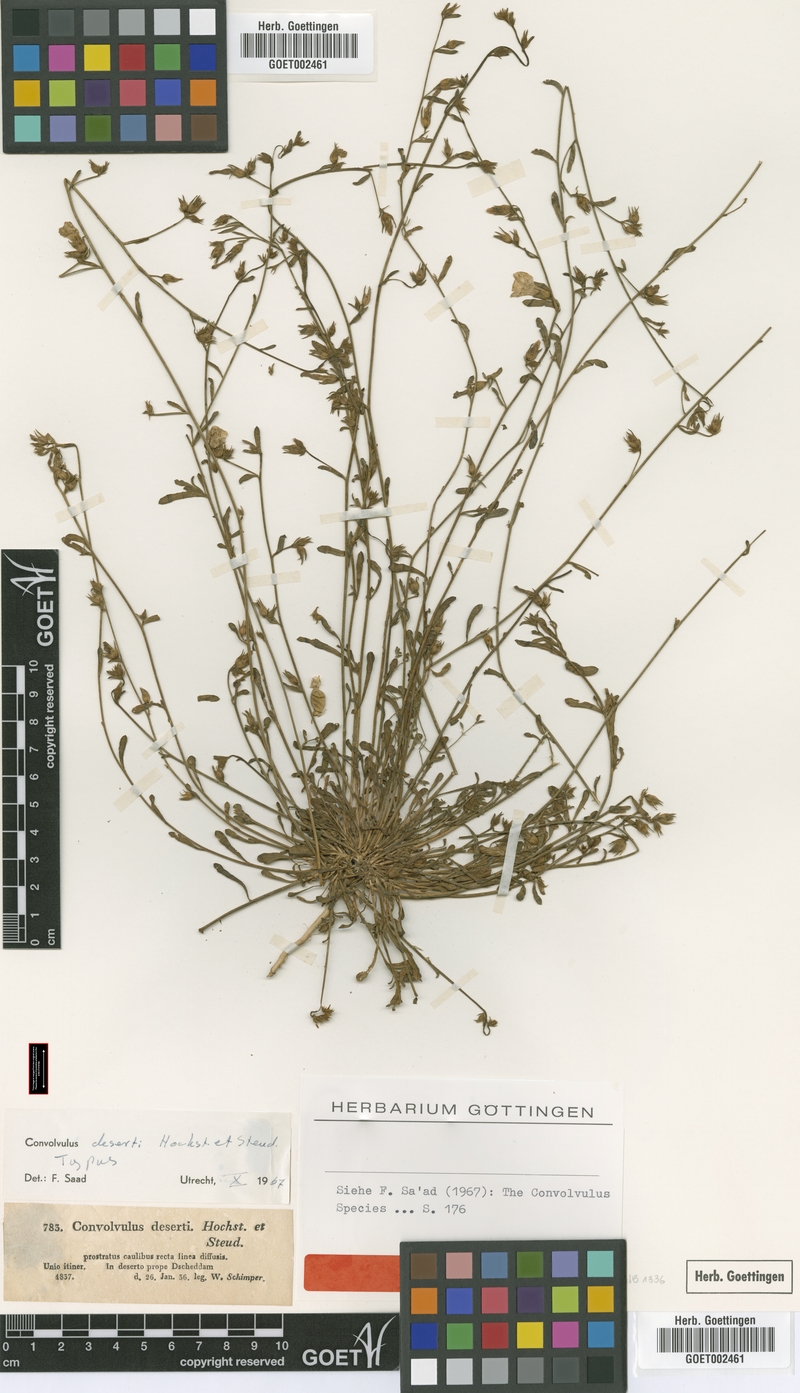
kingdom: Plantae
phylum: Tracheophyta
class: Magnoliopsida
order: Solanales
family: Convolvulaceae
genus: Convolvulus
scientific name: Convolvulus prostratus
